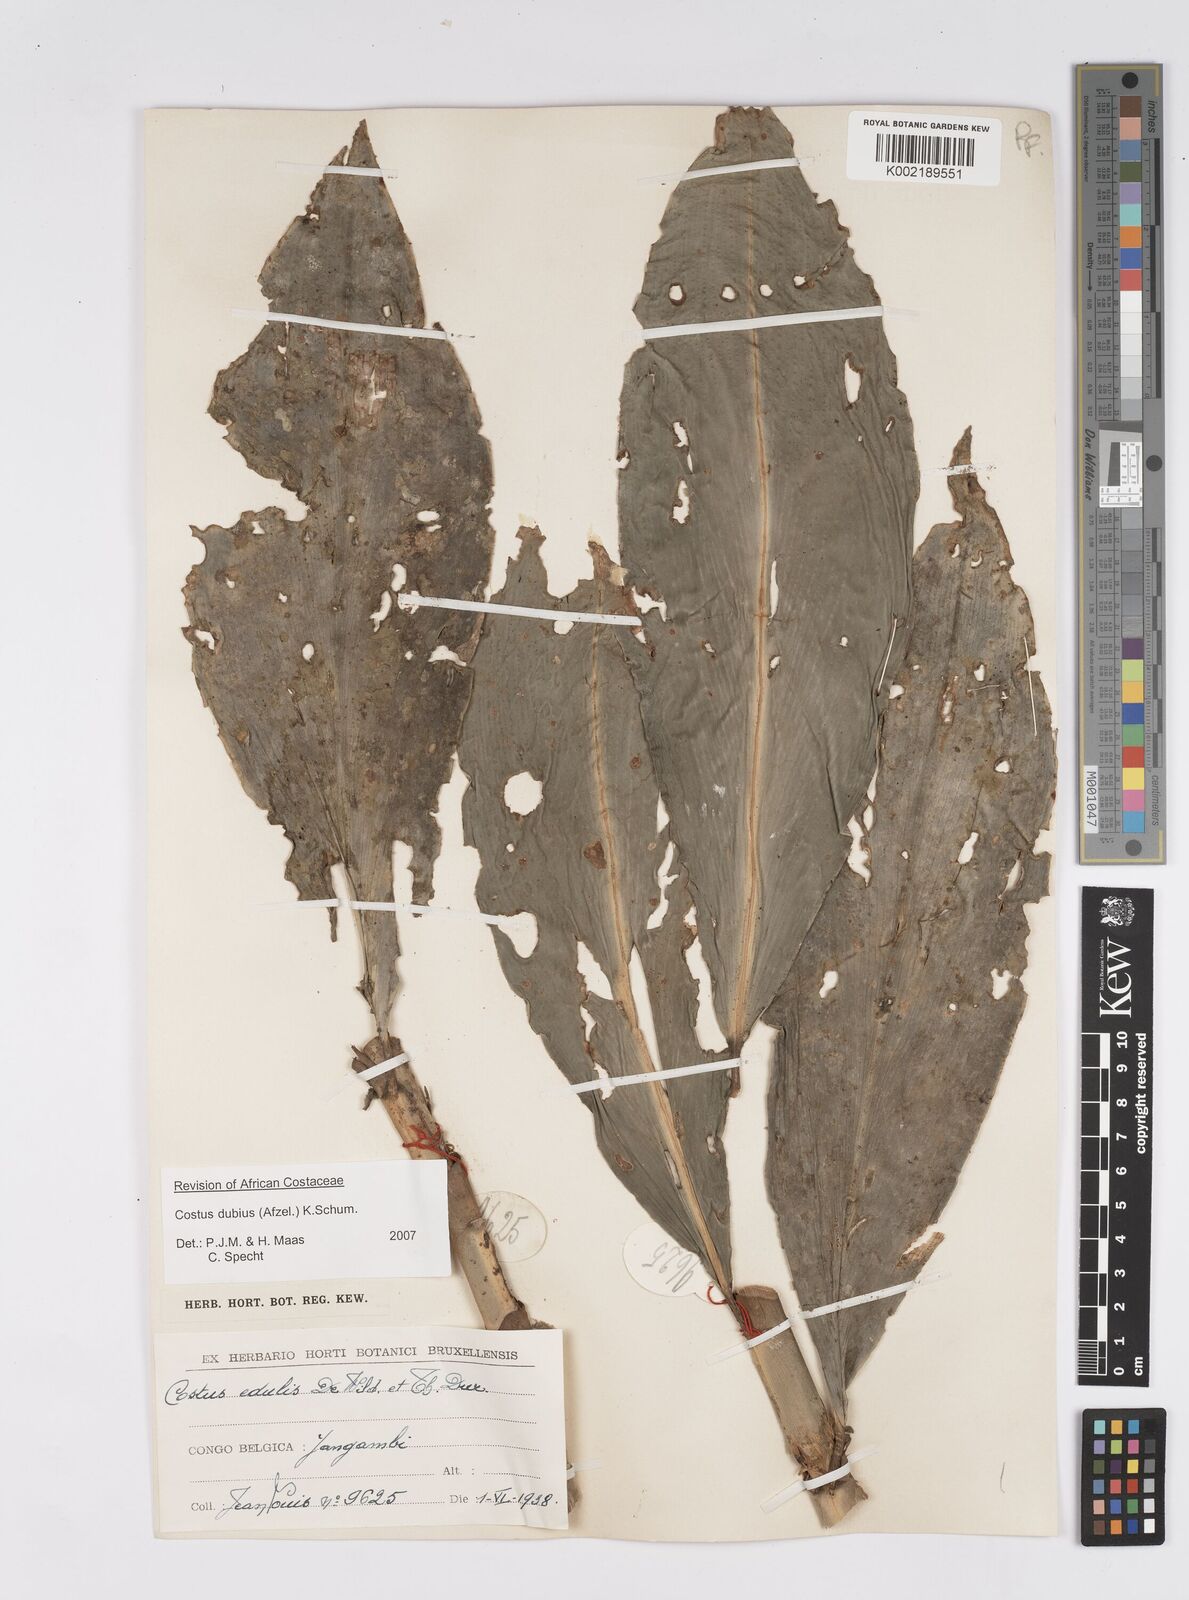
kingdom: Plantae
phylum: Tracheophyta
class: Liliopsida
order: Zingiberales
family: Costaceae
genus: Costus
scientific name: Costus dubius
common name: Costus
